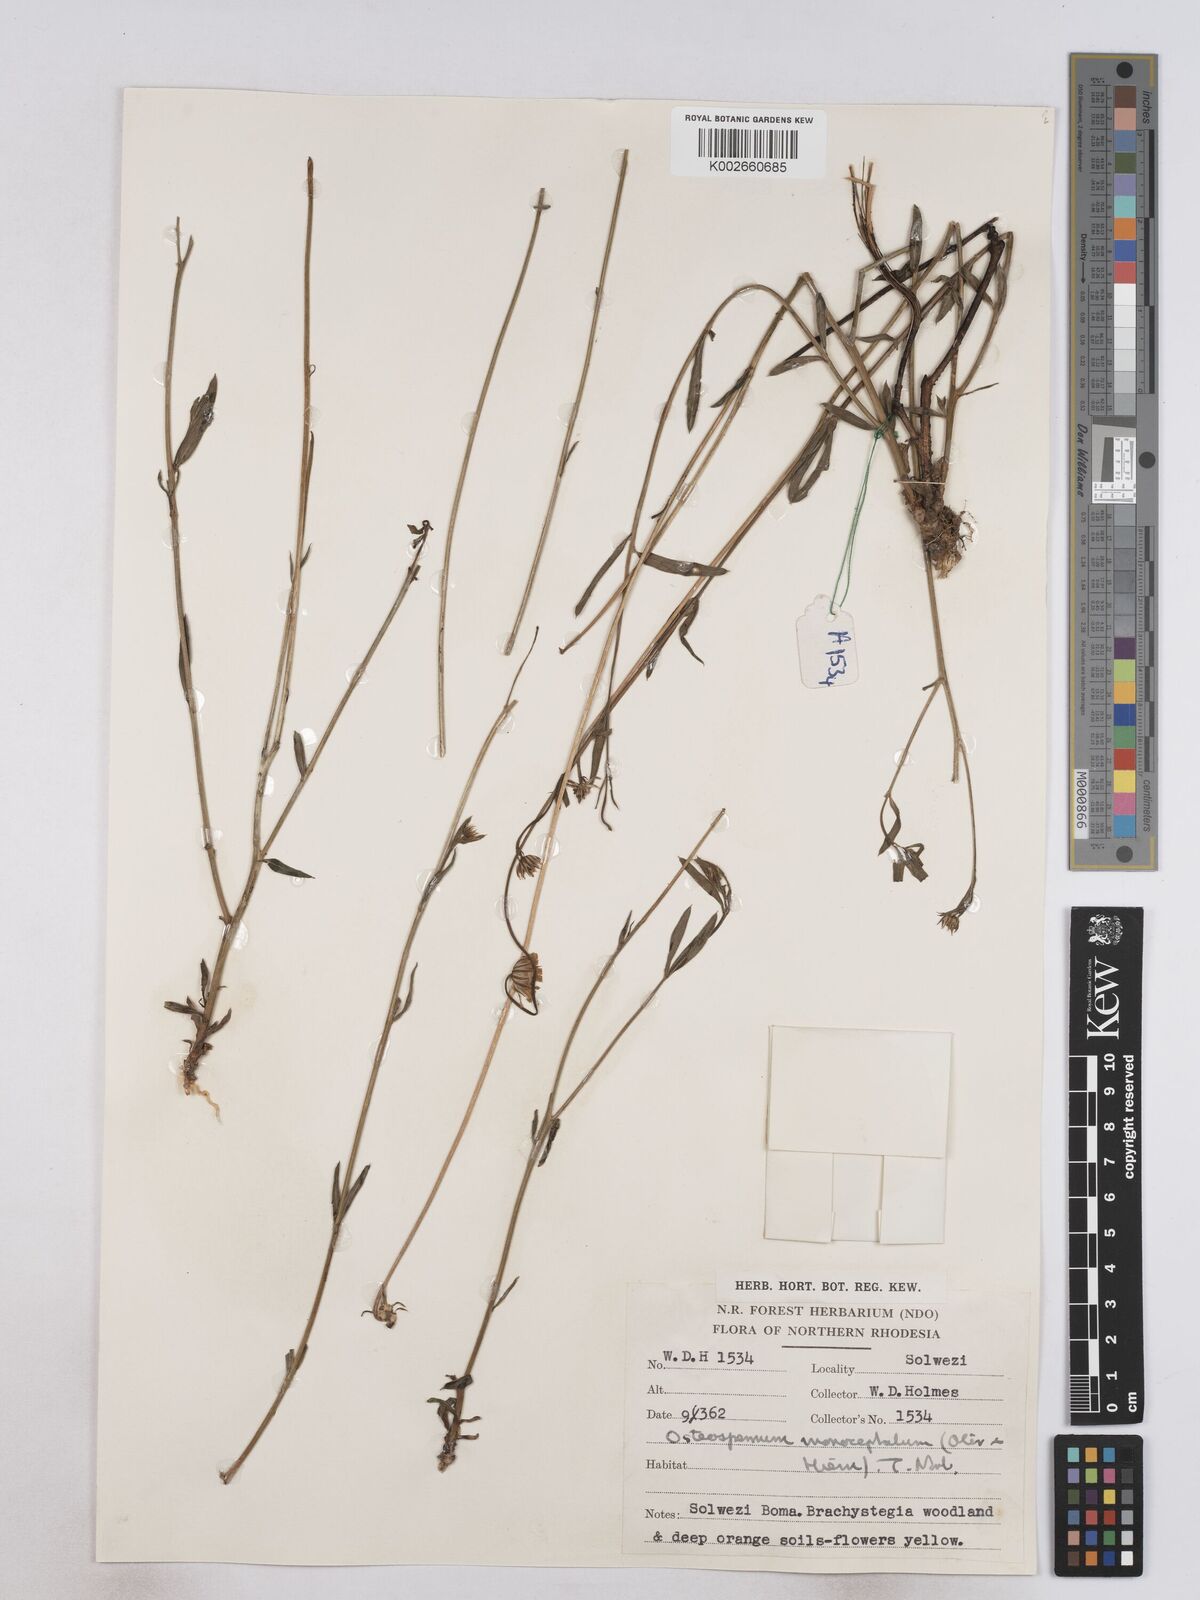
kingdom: Plantae
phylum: Tracheophyta
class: Magnoliopsida
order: Asterales
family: Asteraceae
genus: Osteospermum
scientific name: Osteospermum monocephalum
